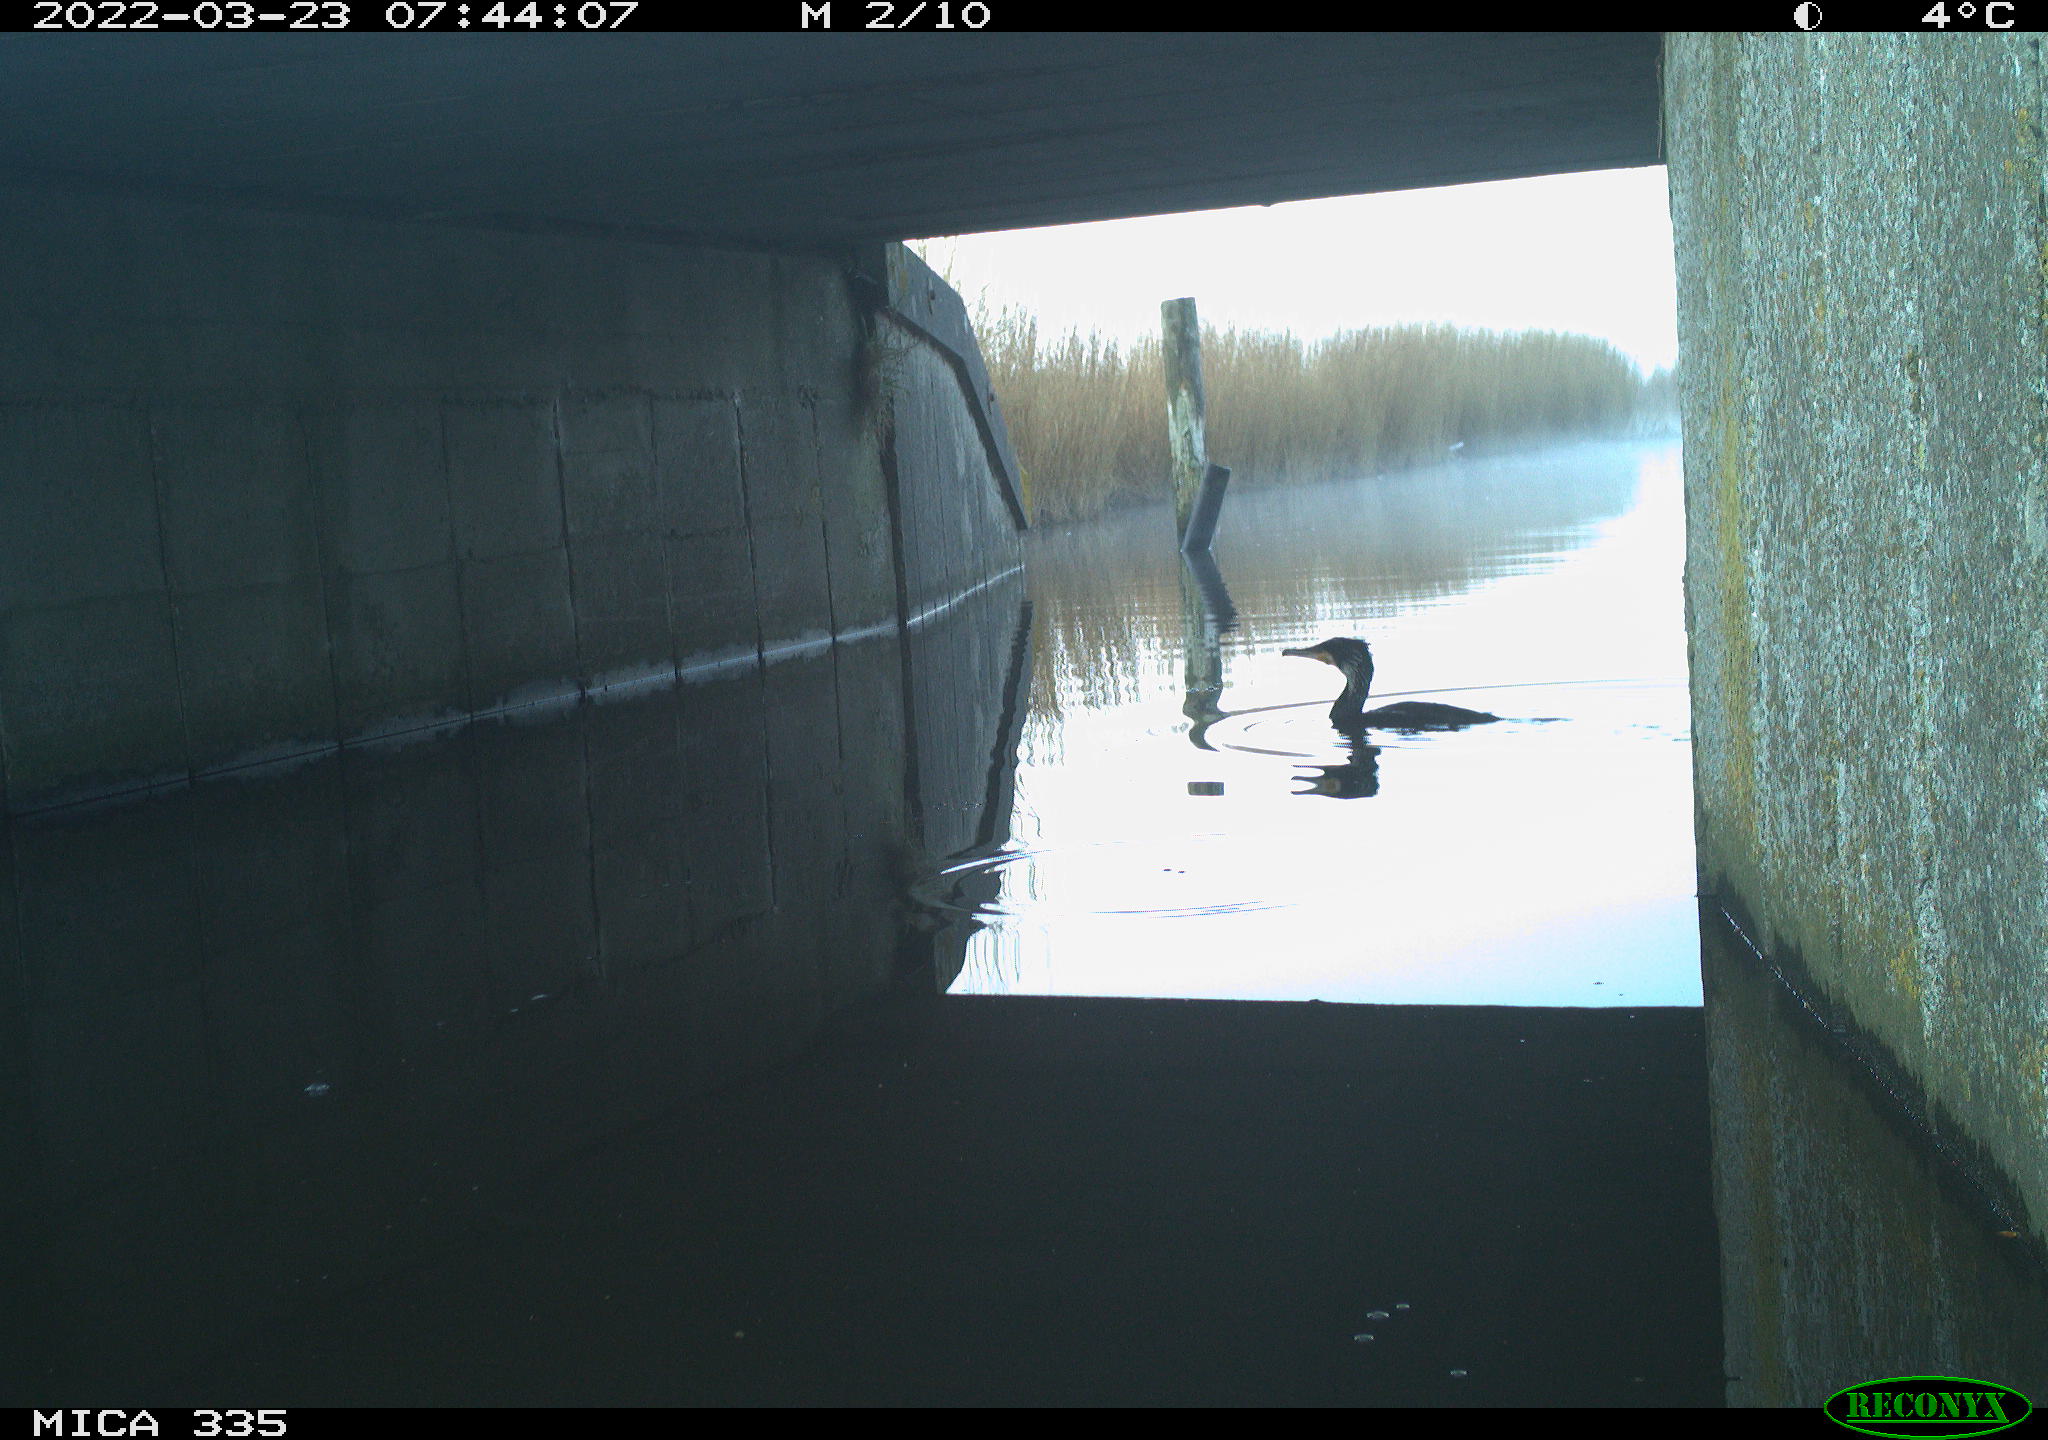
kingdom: Animalia
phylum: Chordata
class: Aves
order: Suliformes
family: Phalacrocoracidae
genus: Phalacrocorax
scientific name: Phalacrocorax carbo
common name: Great cormorant
